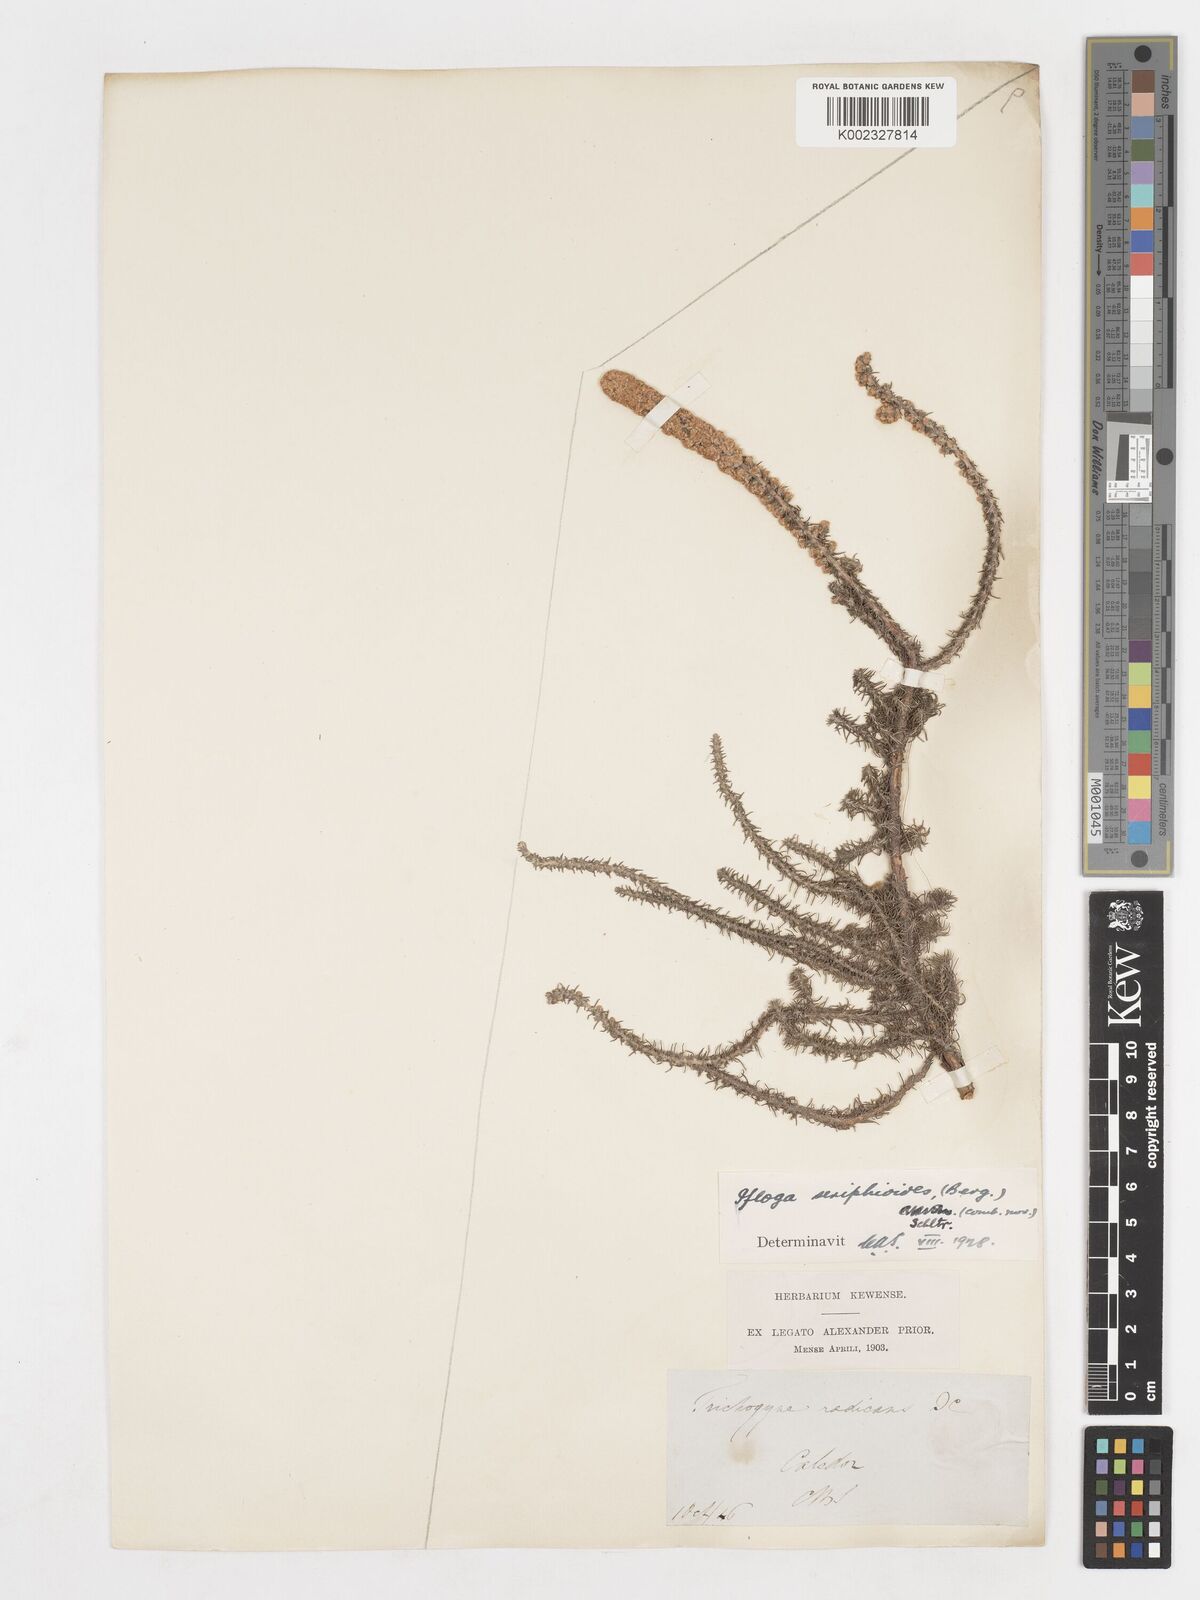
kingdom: Plantae
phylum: Tracheophyta
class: Magnoliopsida
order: Asterales
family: Asteraceae
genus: Ifloga
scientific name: Ifloga ambigua
